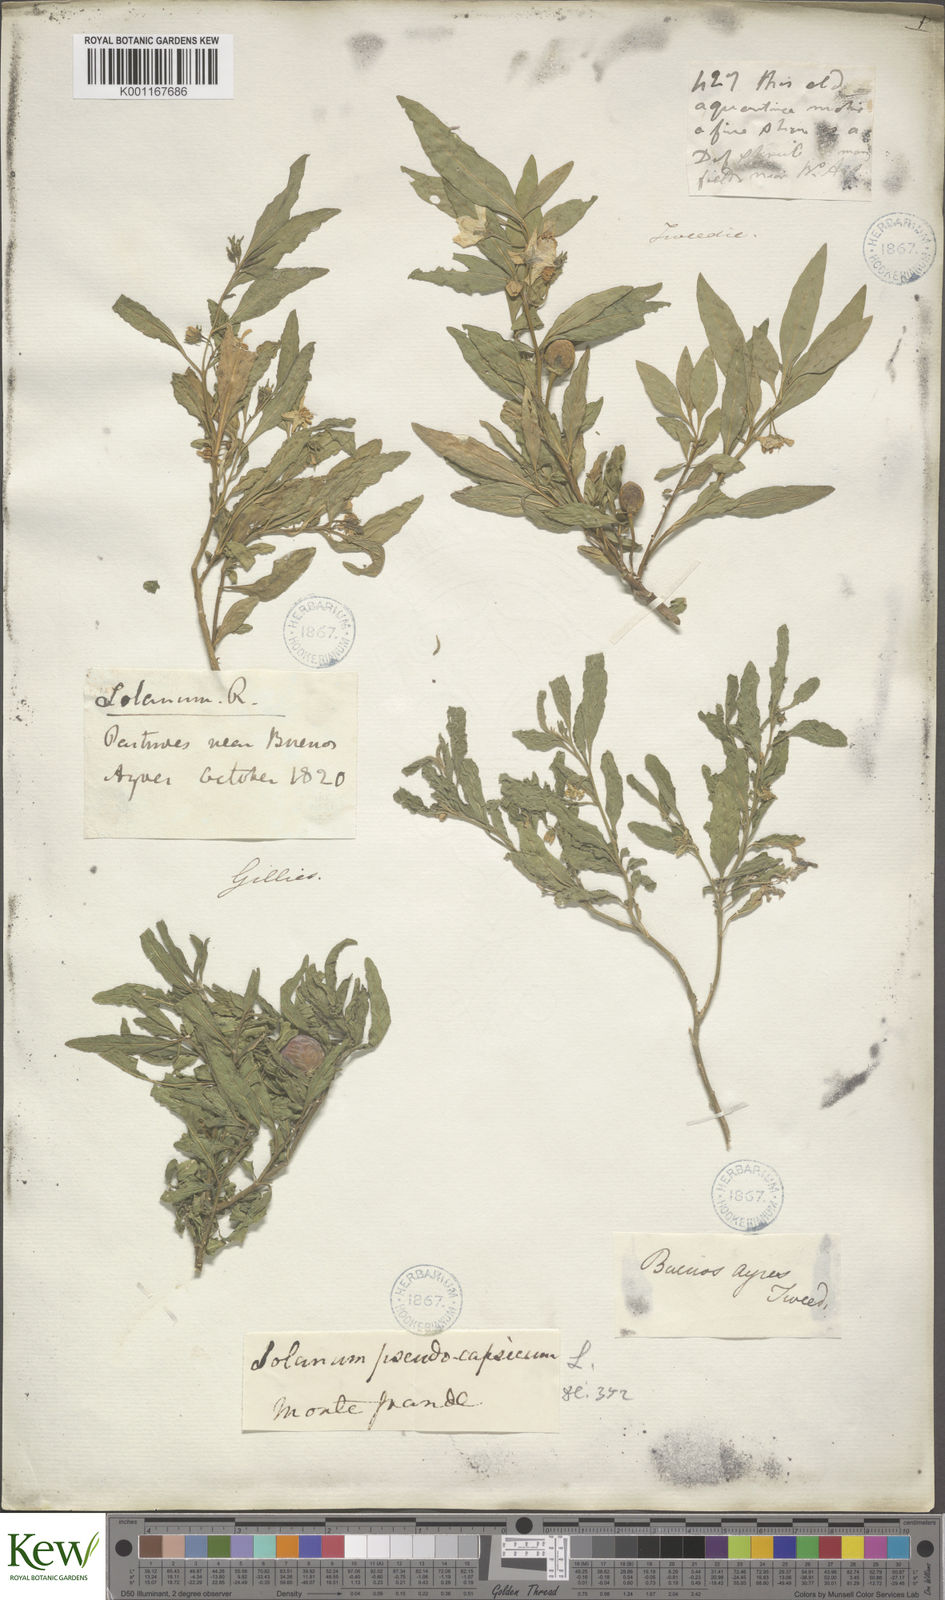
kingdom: Plantae
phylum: Tracheophyta
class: Magnoliopsida
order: Solanales
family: Solanaceae
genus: Solanum
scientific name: Solanum
